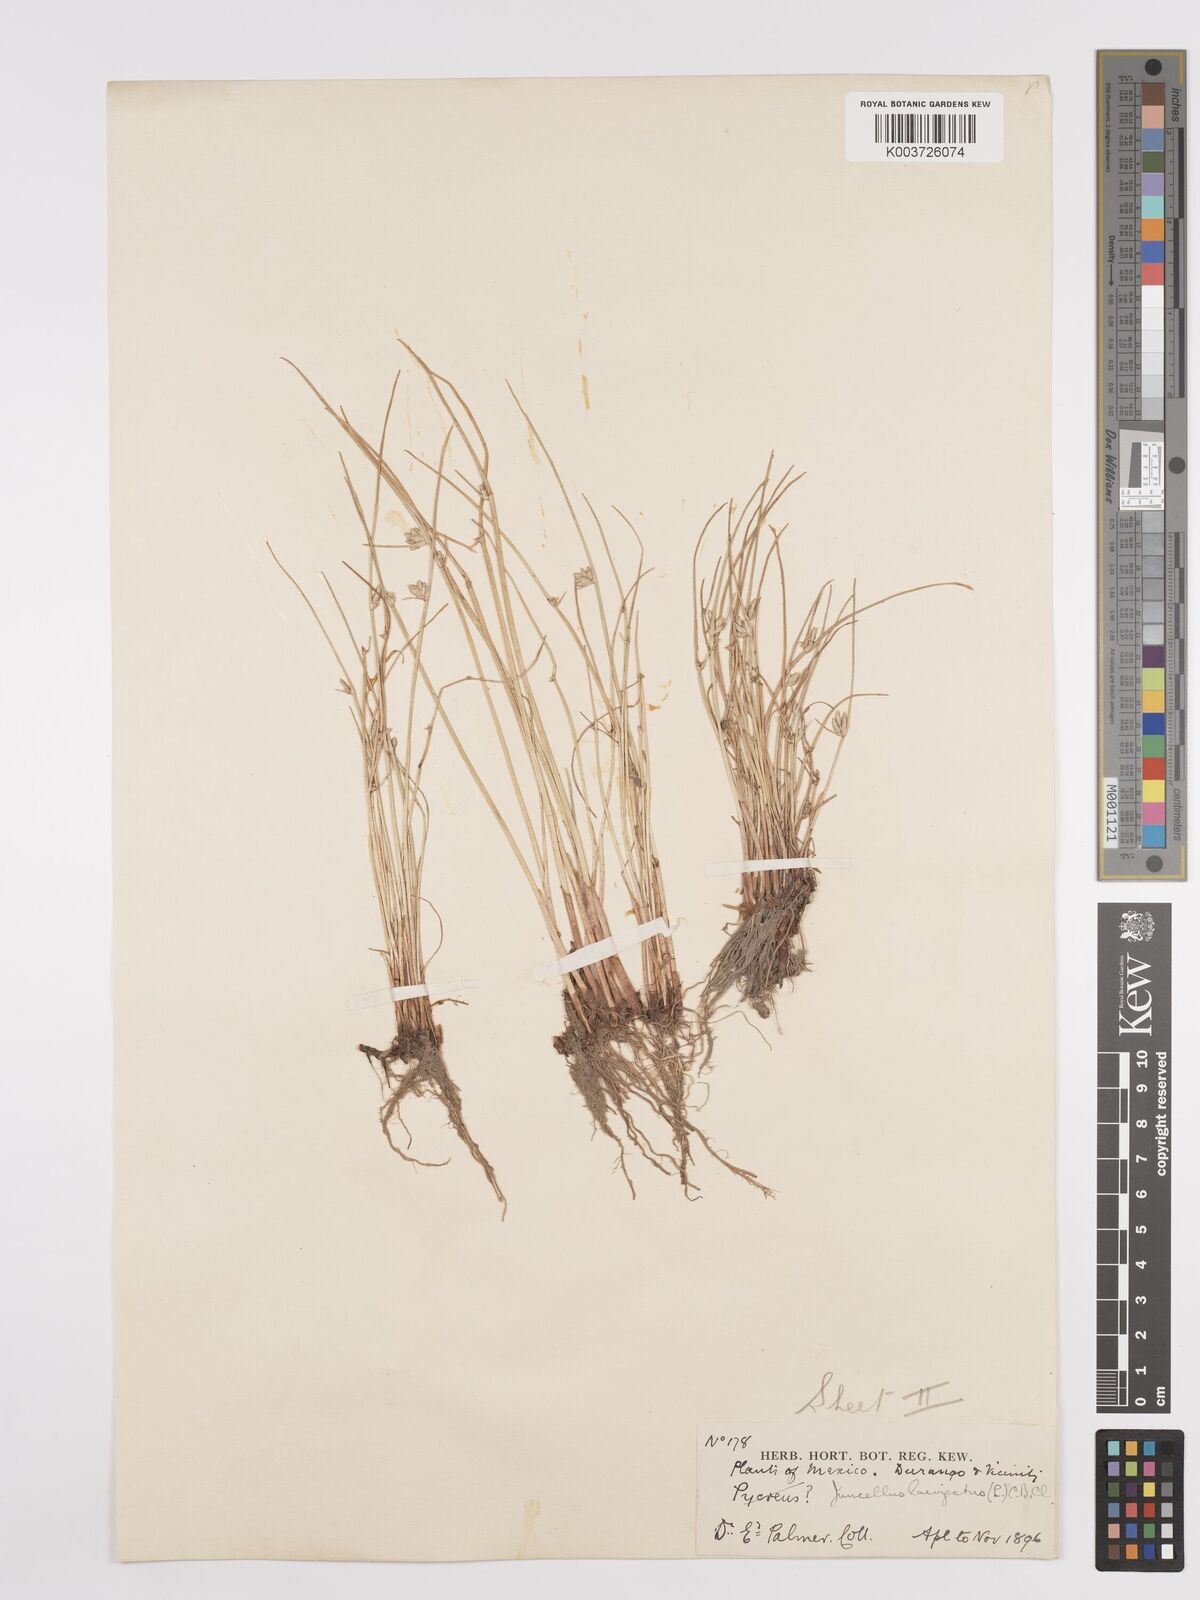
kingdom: Plantae
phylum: Tracheophyta
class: Liliopsida
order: Poales
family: Cyperaceae
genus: Cyperus
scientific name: Cyperus laevigatus
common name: Smooth flat sedge
